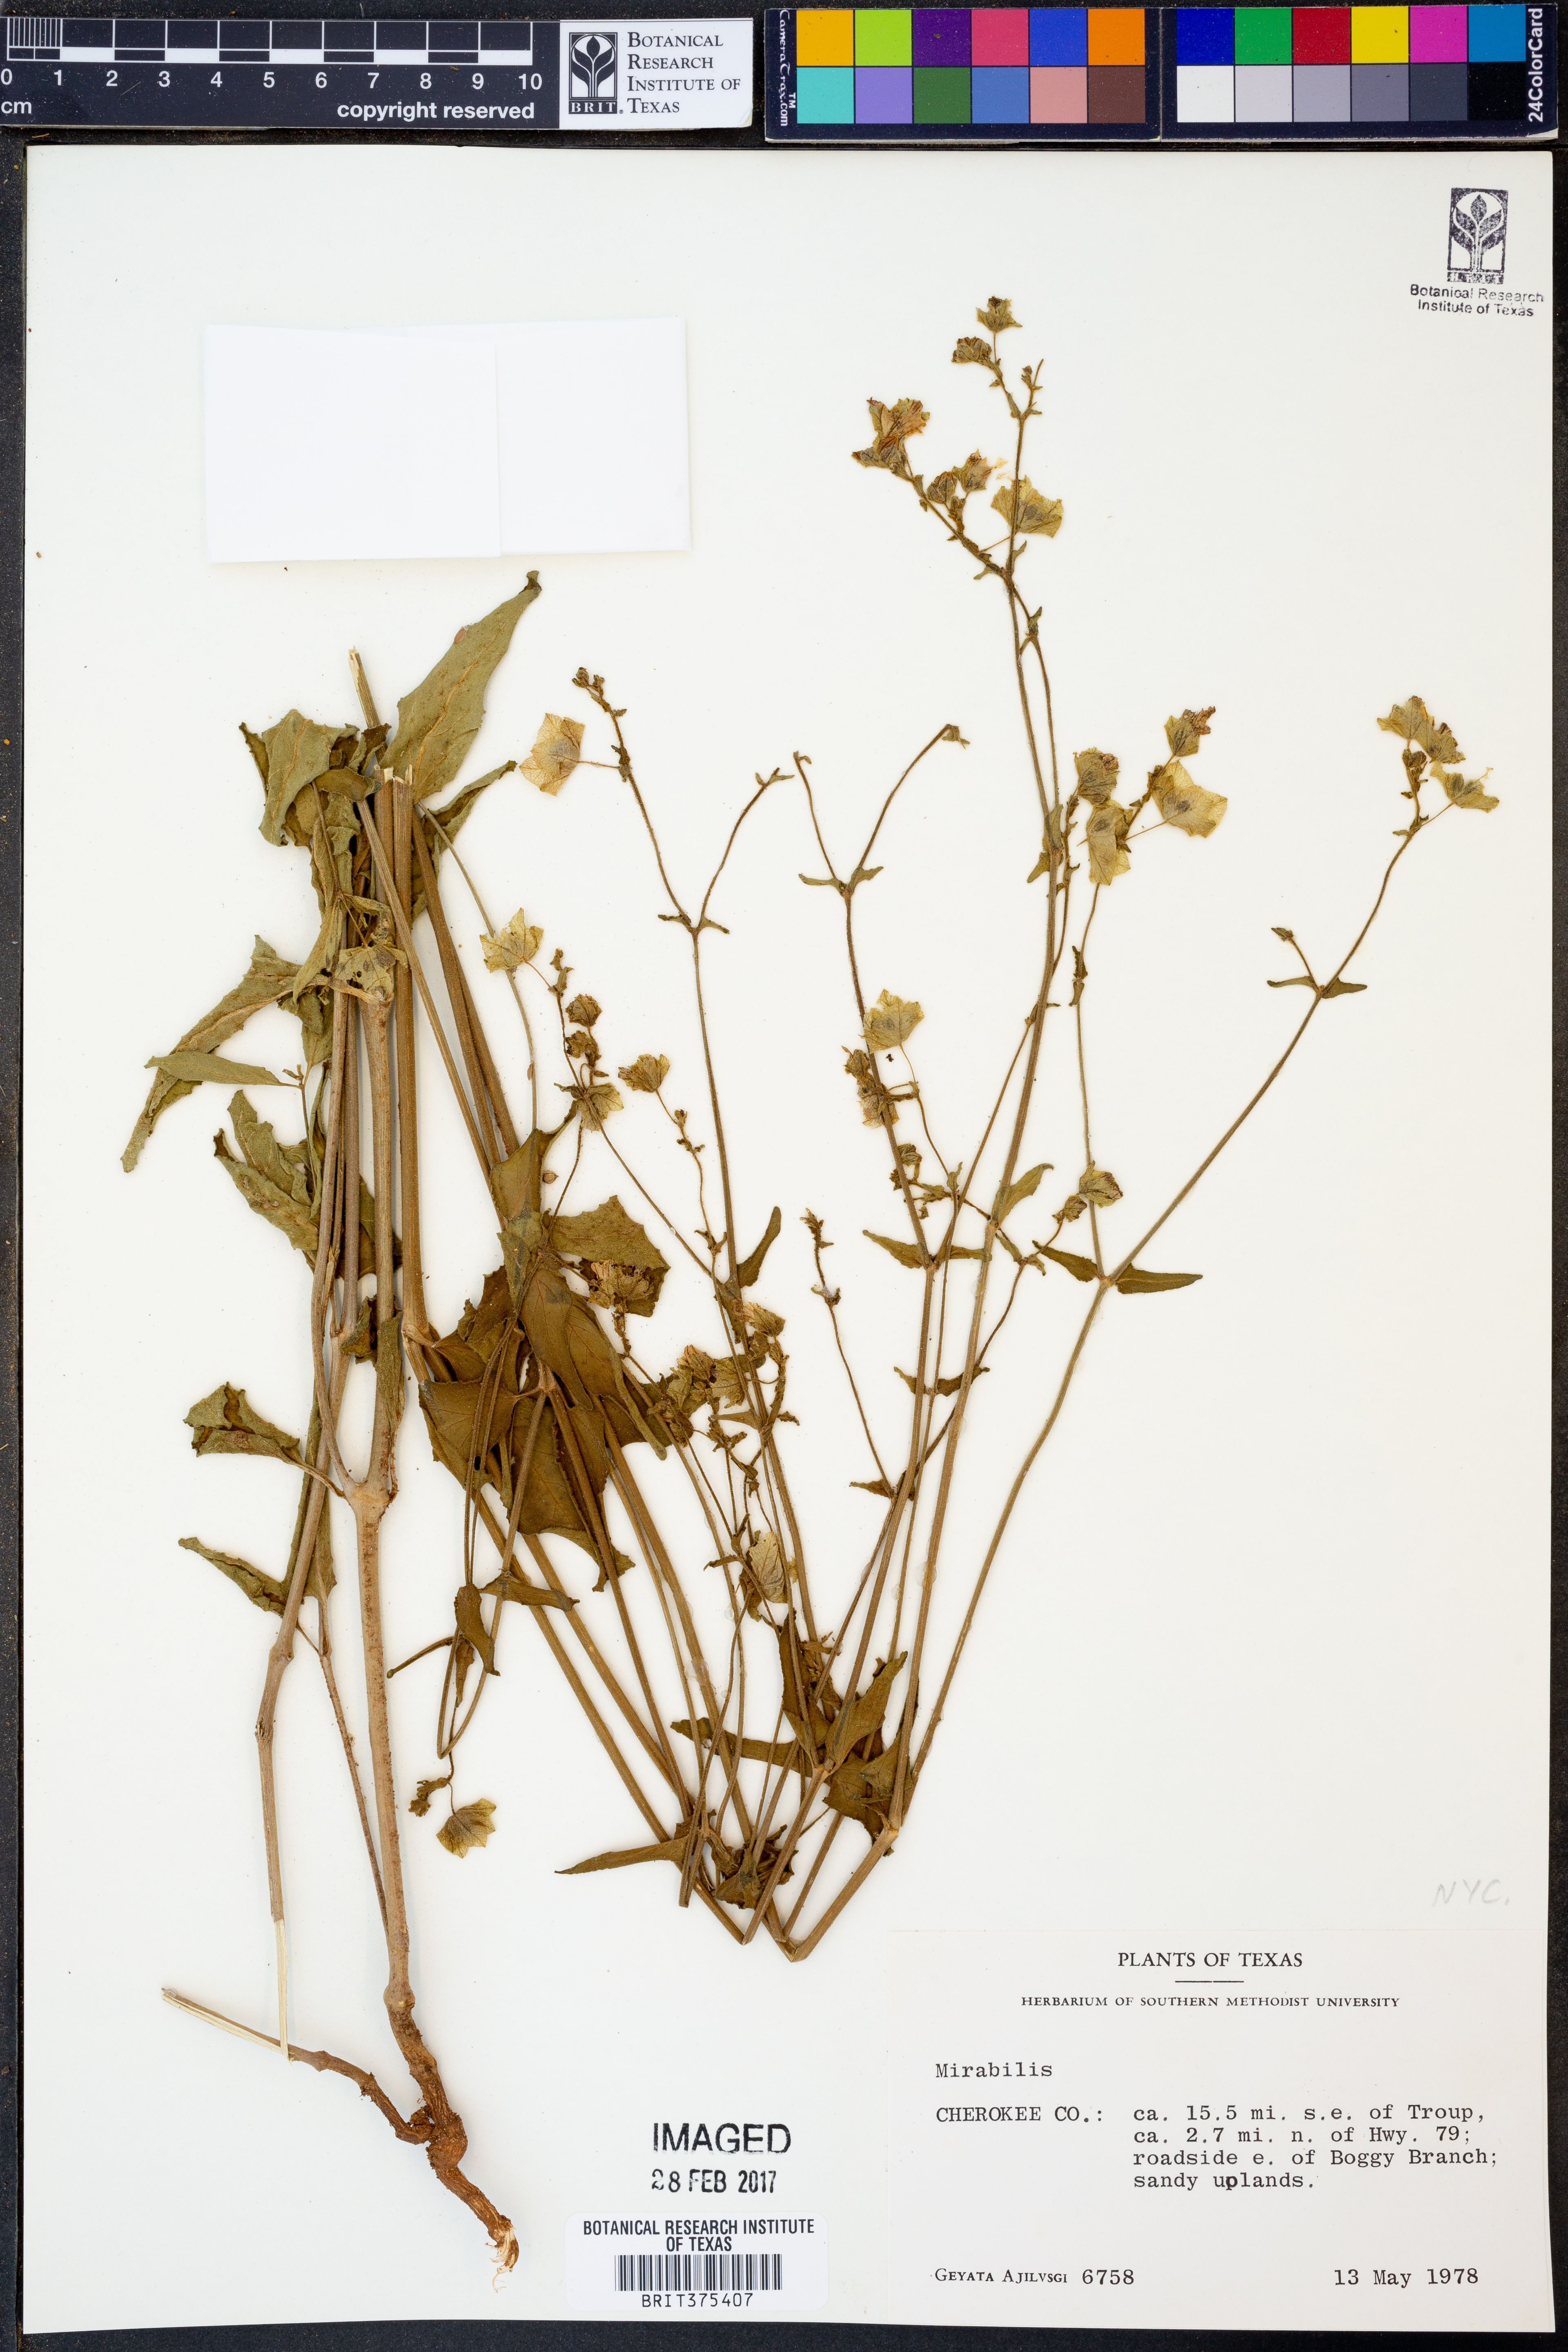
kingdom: Plantae
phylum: Tracheophyta
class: Magnoliopsida
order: Caryophyllales
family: Nyctaginaceae
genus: Mirabilis
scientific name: Mirabilis
